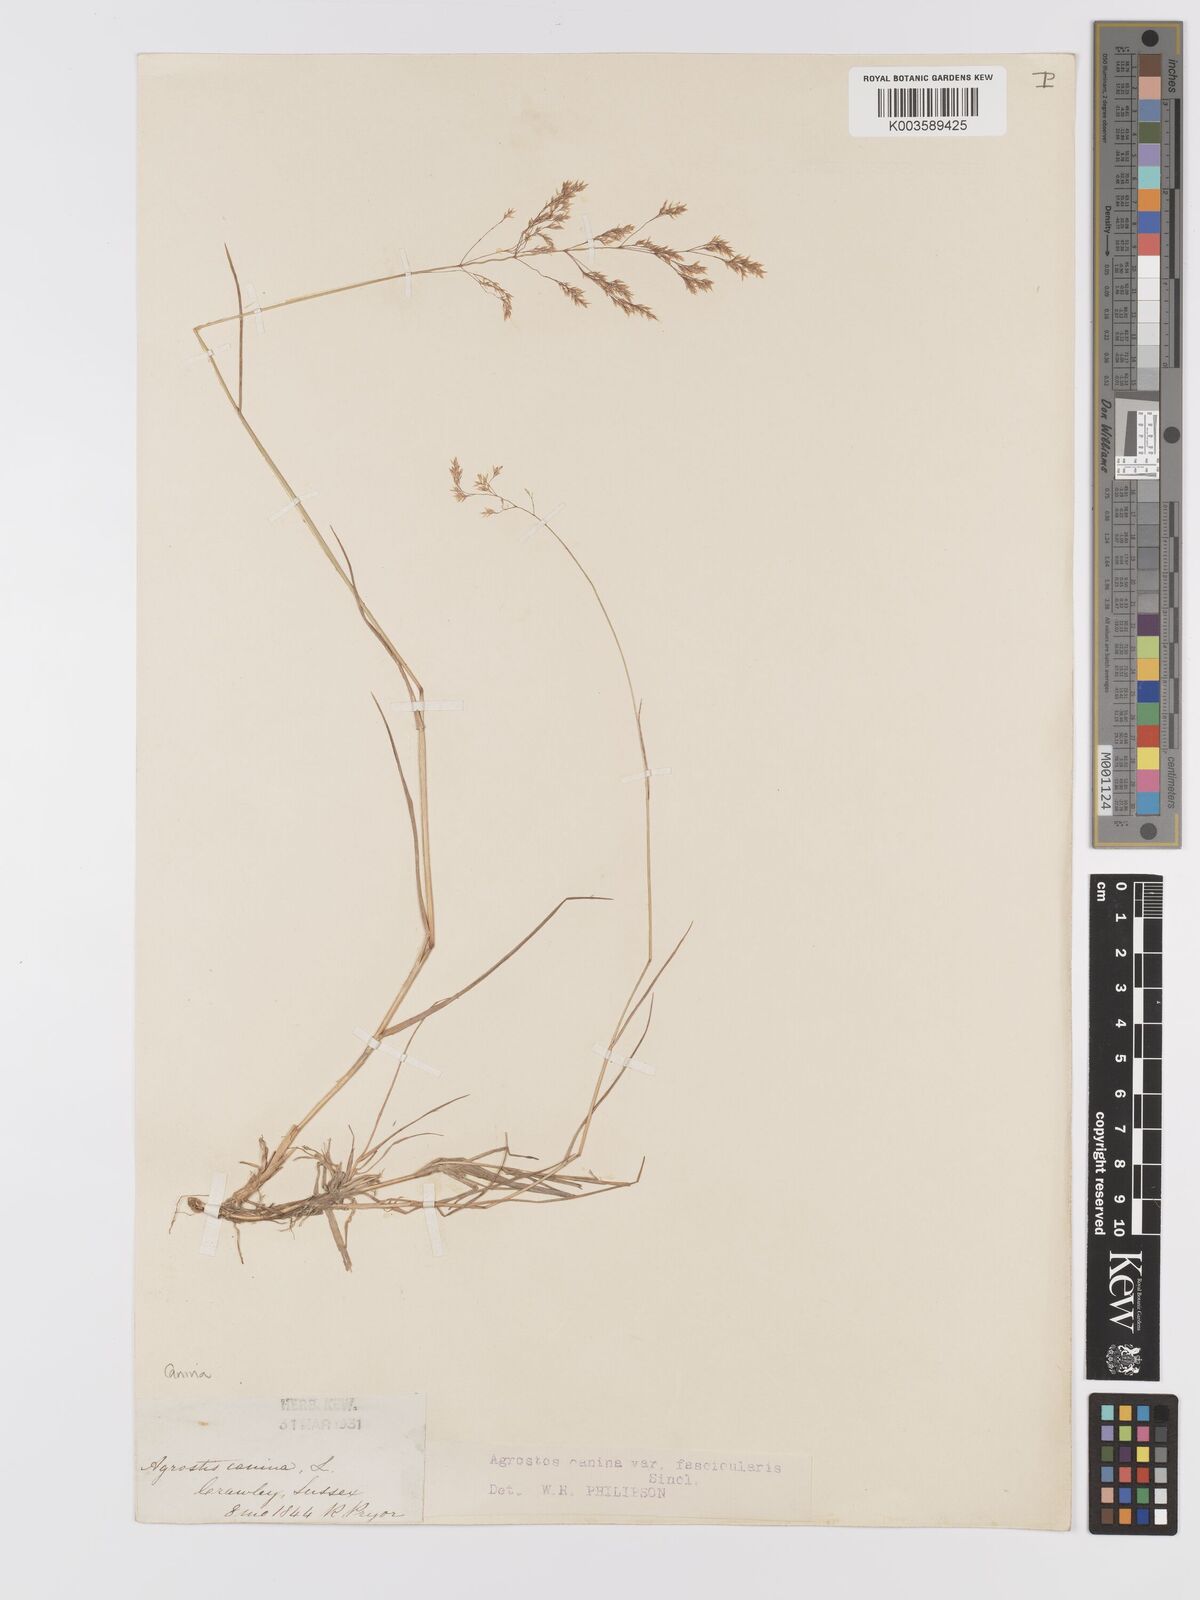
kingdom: Plantae
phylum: Tracheophyta
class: Liliopsida
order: Poales
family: Poaceae
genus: Agrostis
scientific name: Agrostis canina
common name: Velvet bent
